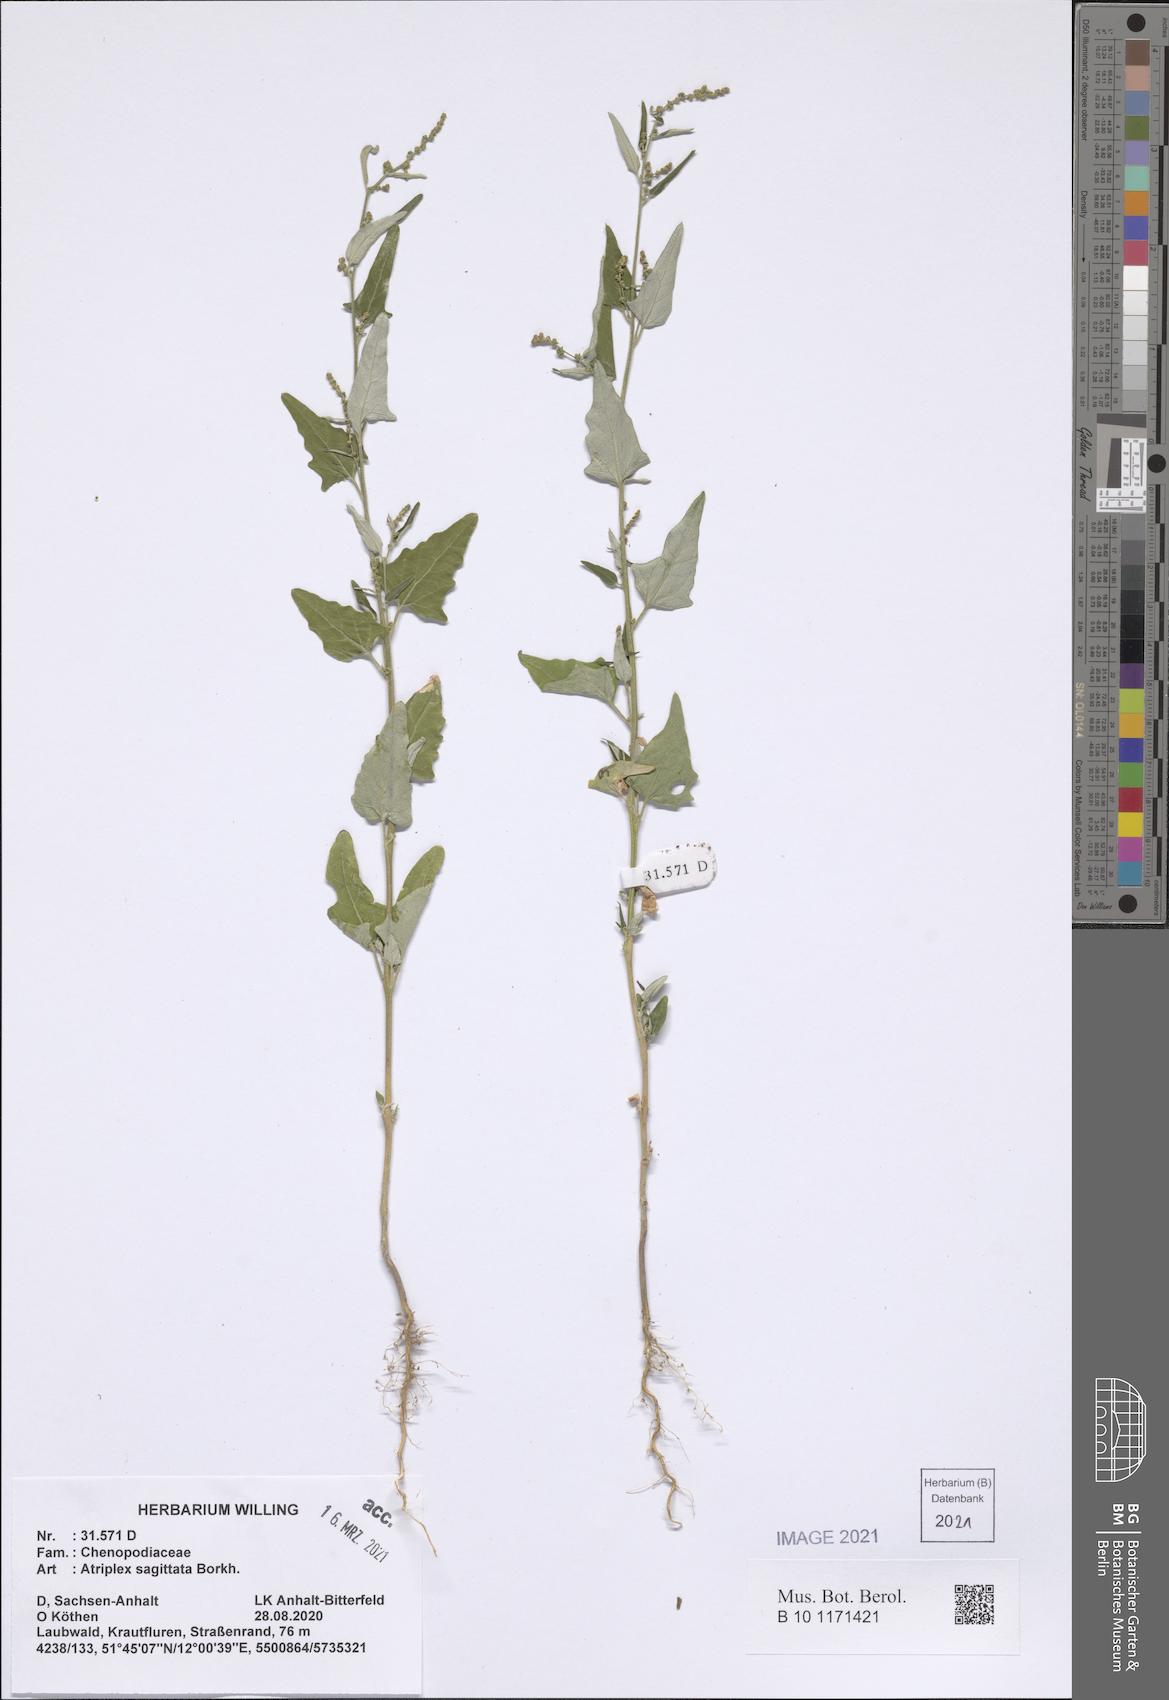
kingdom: Plantae
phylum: Tracheophyta
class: Magnoliopsida
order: Caryophyllales
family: Amaranthaceae
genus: Atriplex
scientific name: Atriplex sagittata
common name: Purple orache
